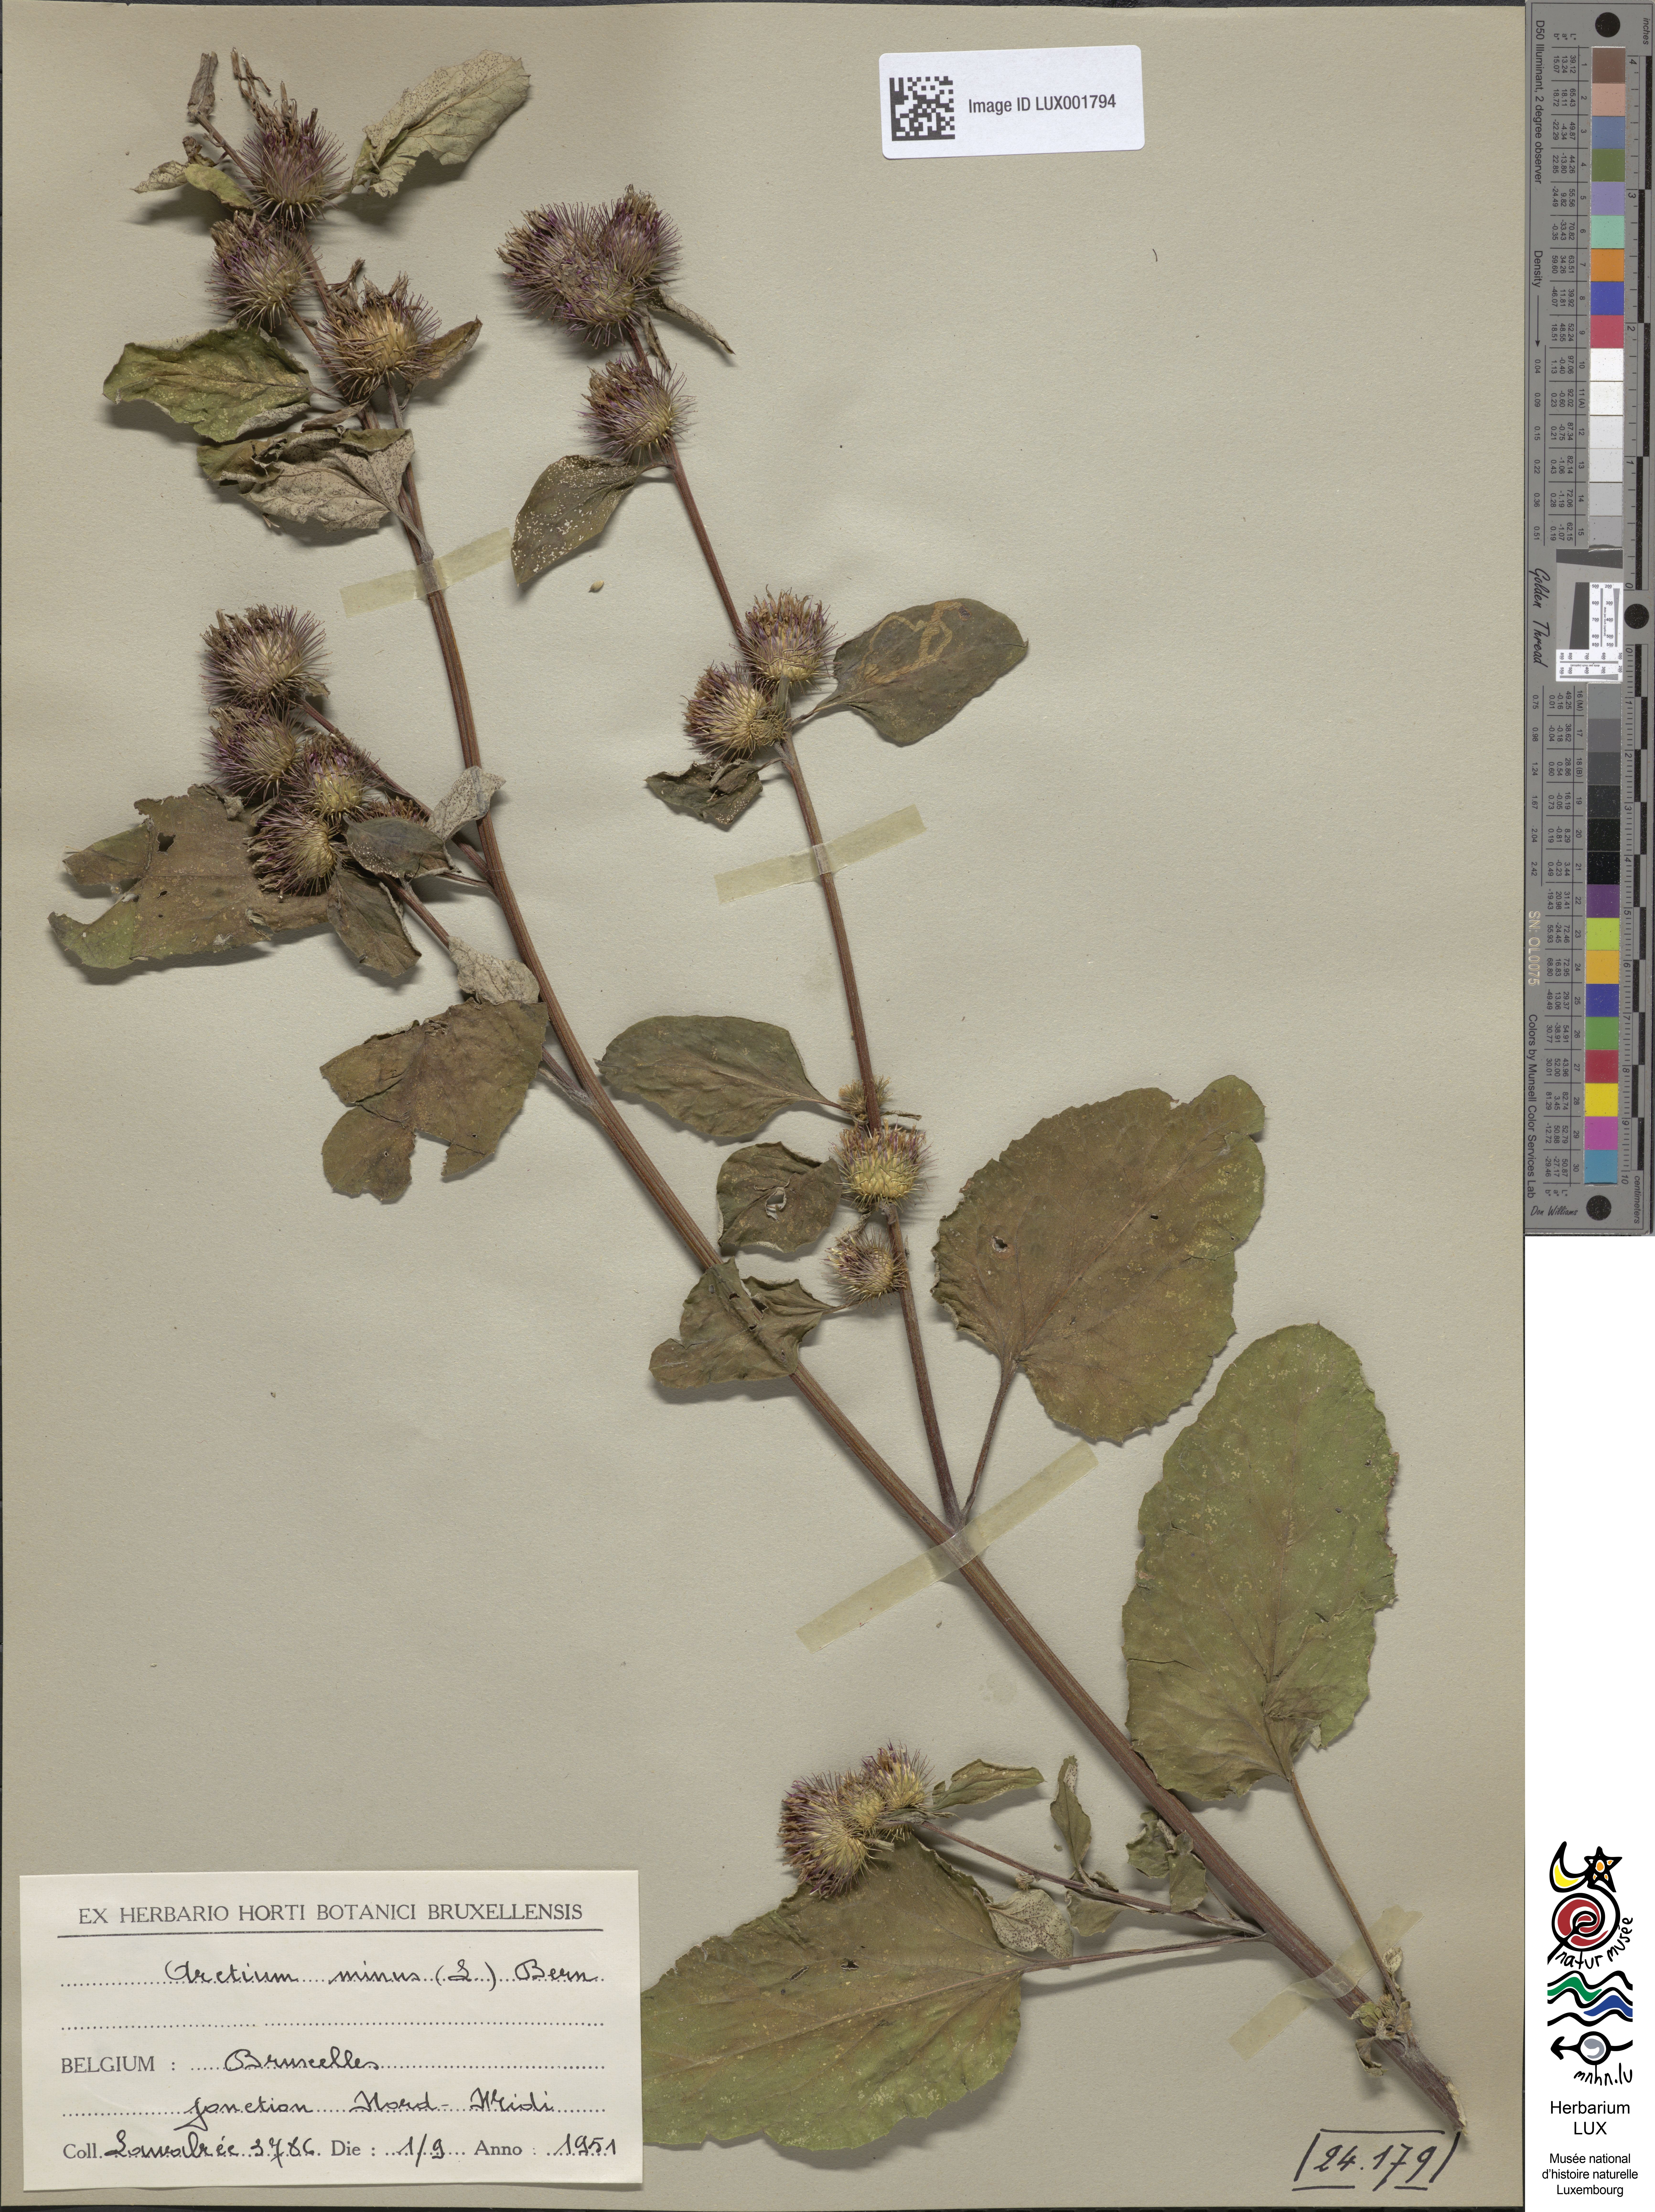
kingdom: Plantae
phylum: Tracheophyta
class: Magnoliopsida
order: Asterales
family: Asteraceae
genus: Arctium
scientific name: Arctium minus
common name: Lesser burdock
